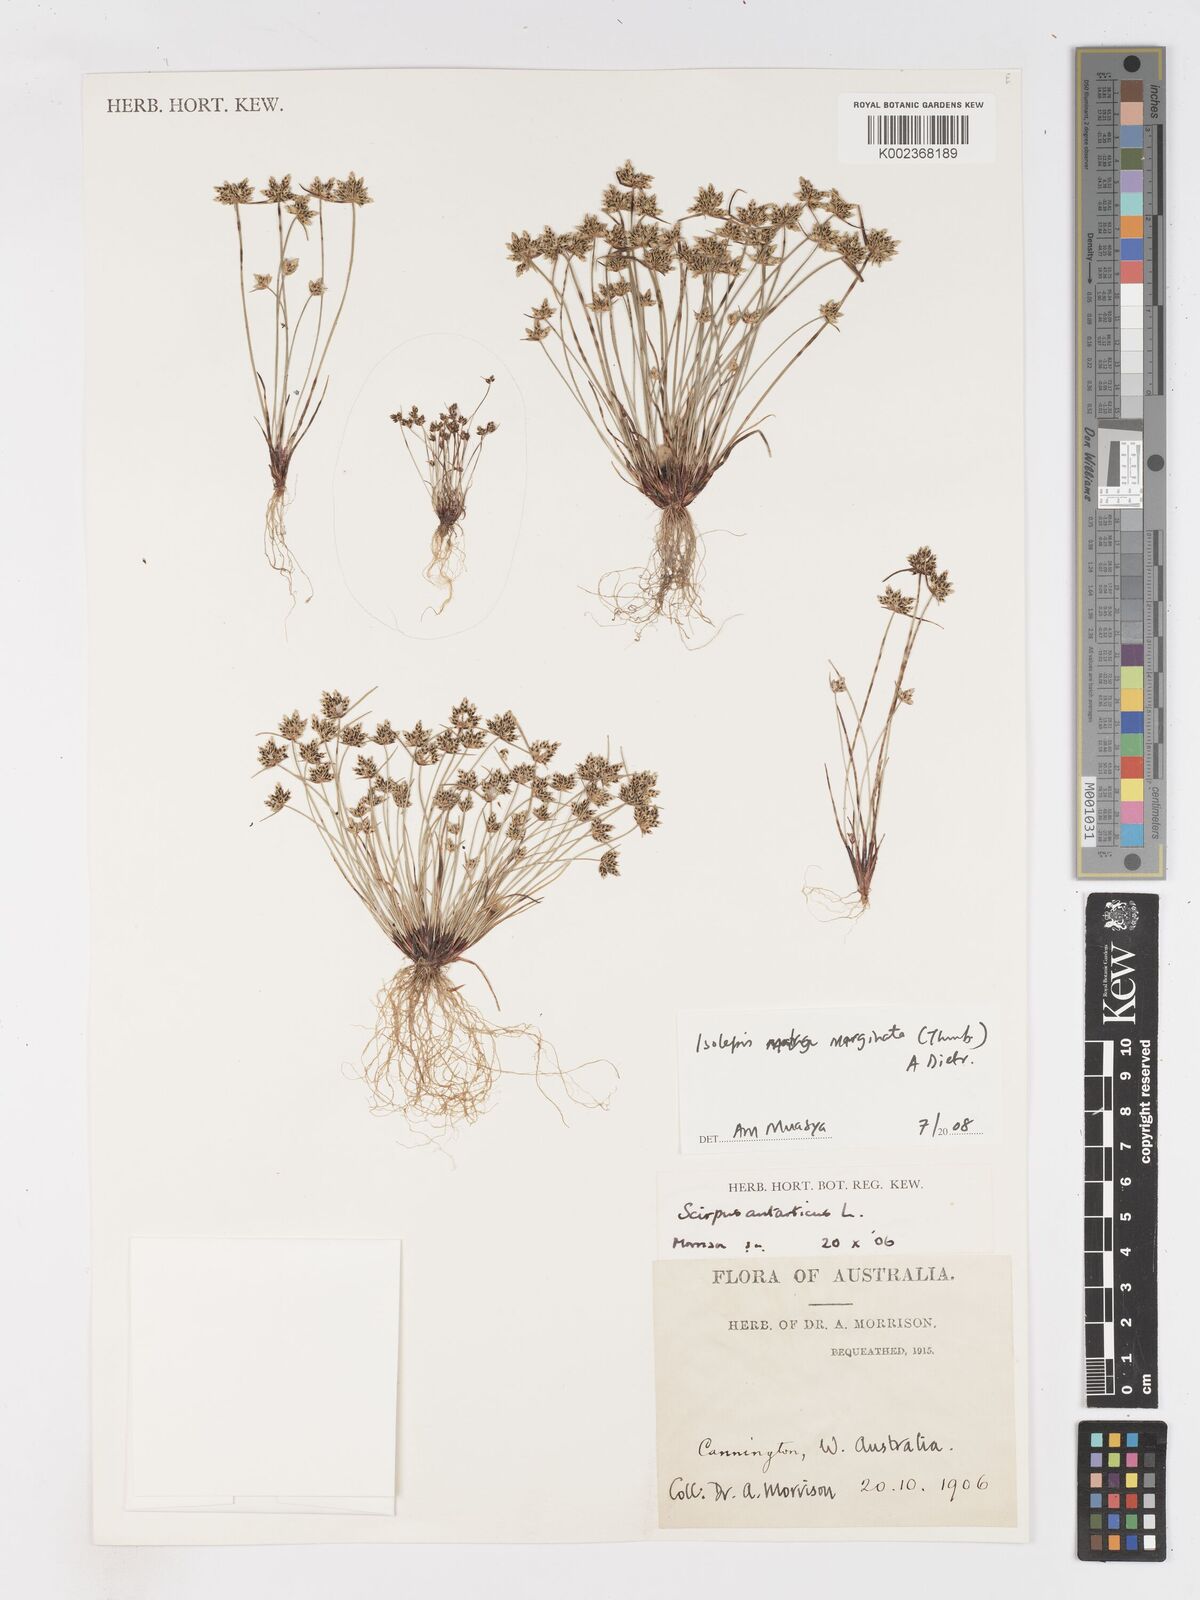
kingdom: Plantae
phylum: Tracheophyta
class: Liliopsida
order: Poales
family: Cyperaceae
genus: Isolepis
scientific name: Isolepis antarctica
